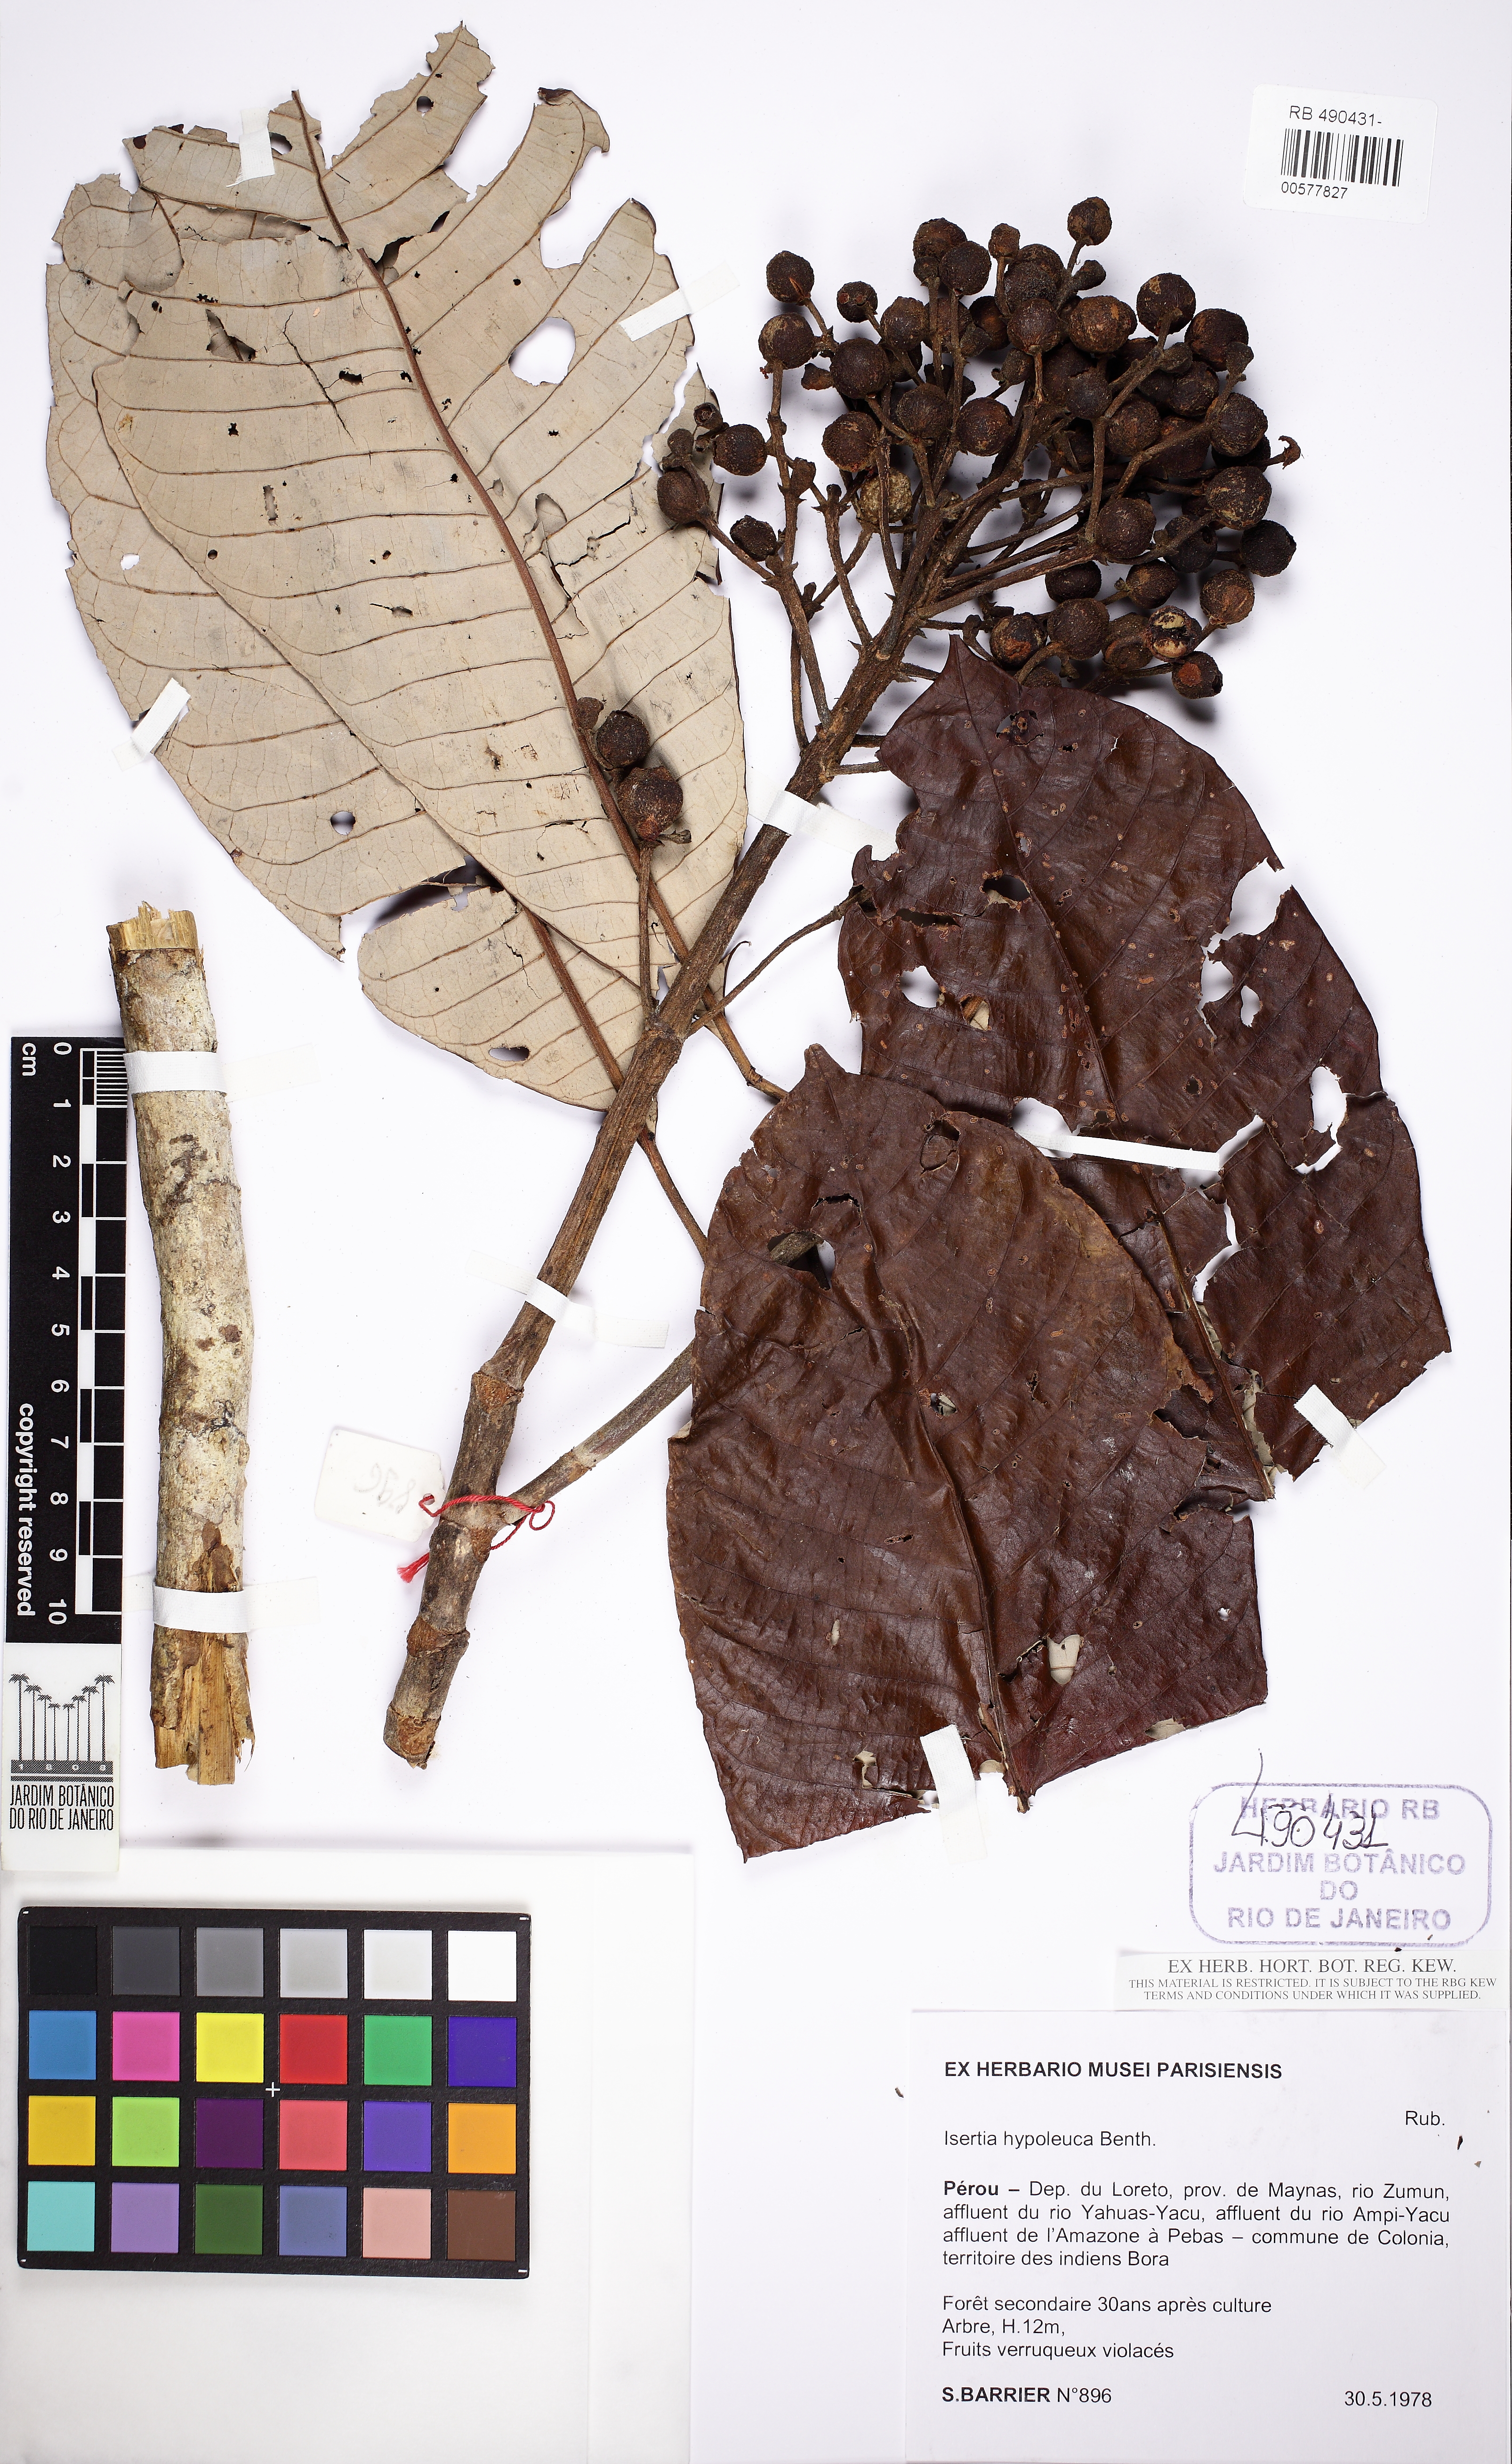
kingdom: Plantae
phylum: Tracheophyta
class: Magnoliopsida
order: Gentianales
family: Rubiaceae
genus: Isertia
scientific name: Isertia hypoleuca
